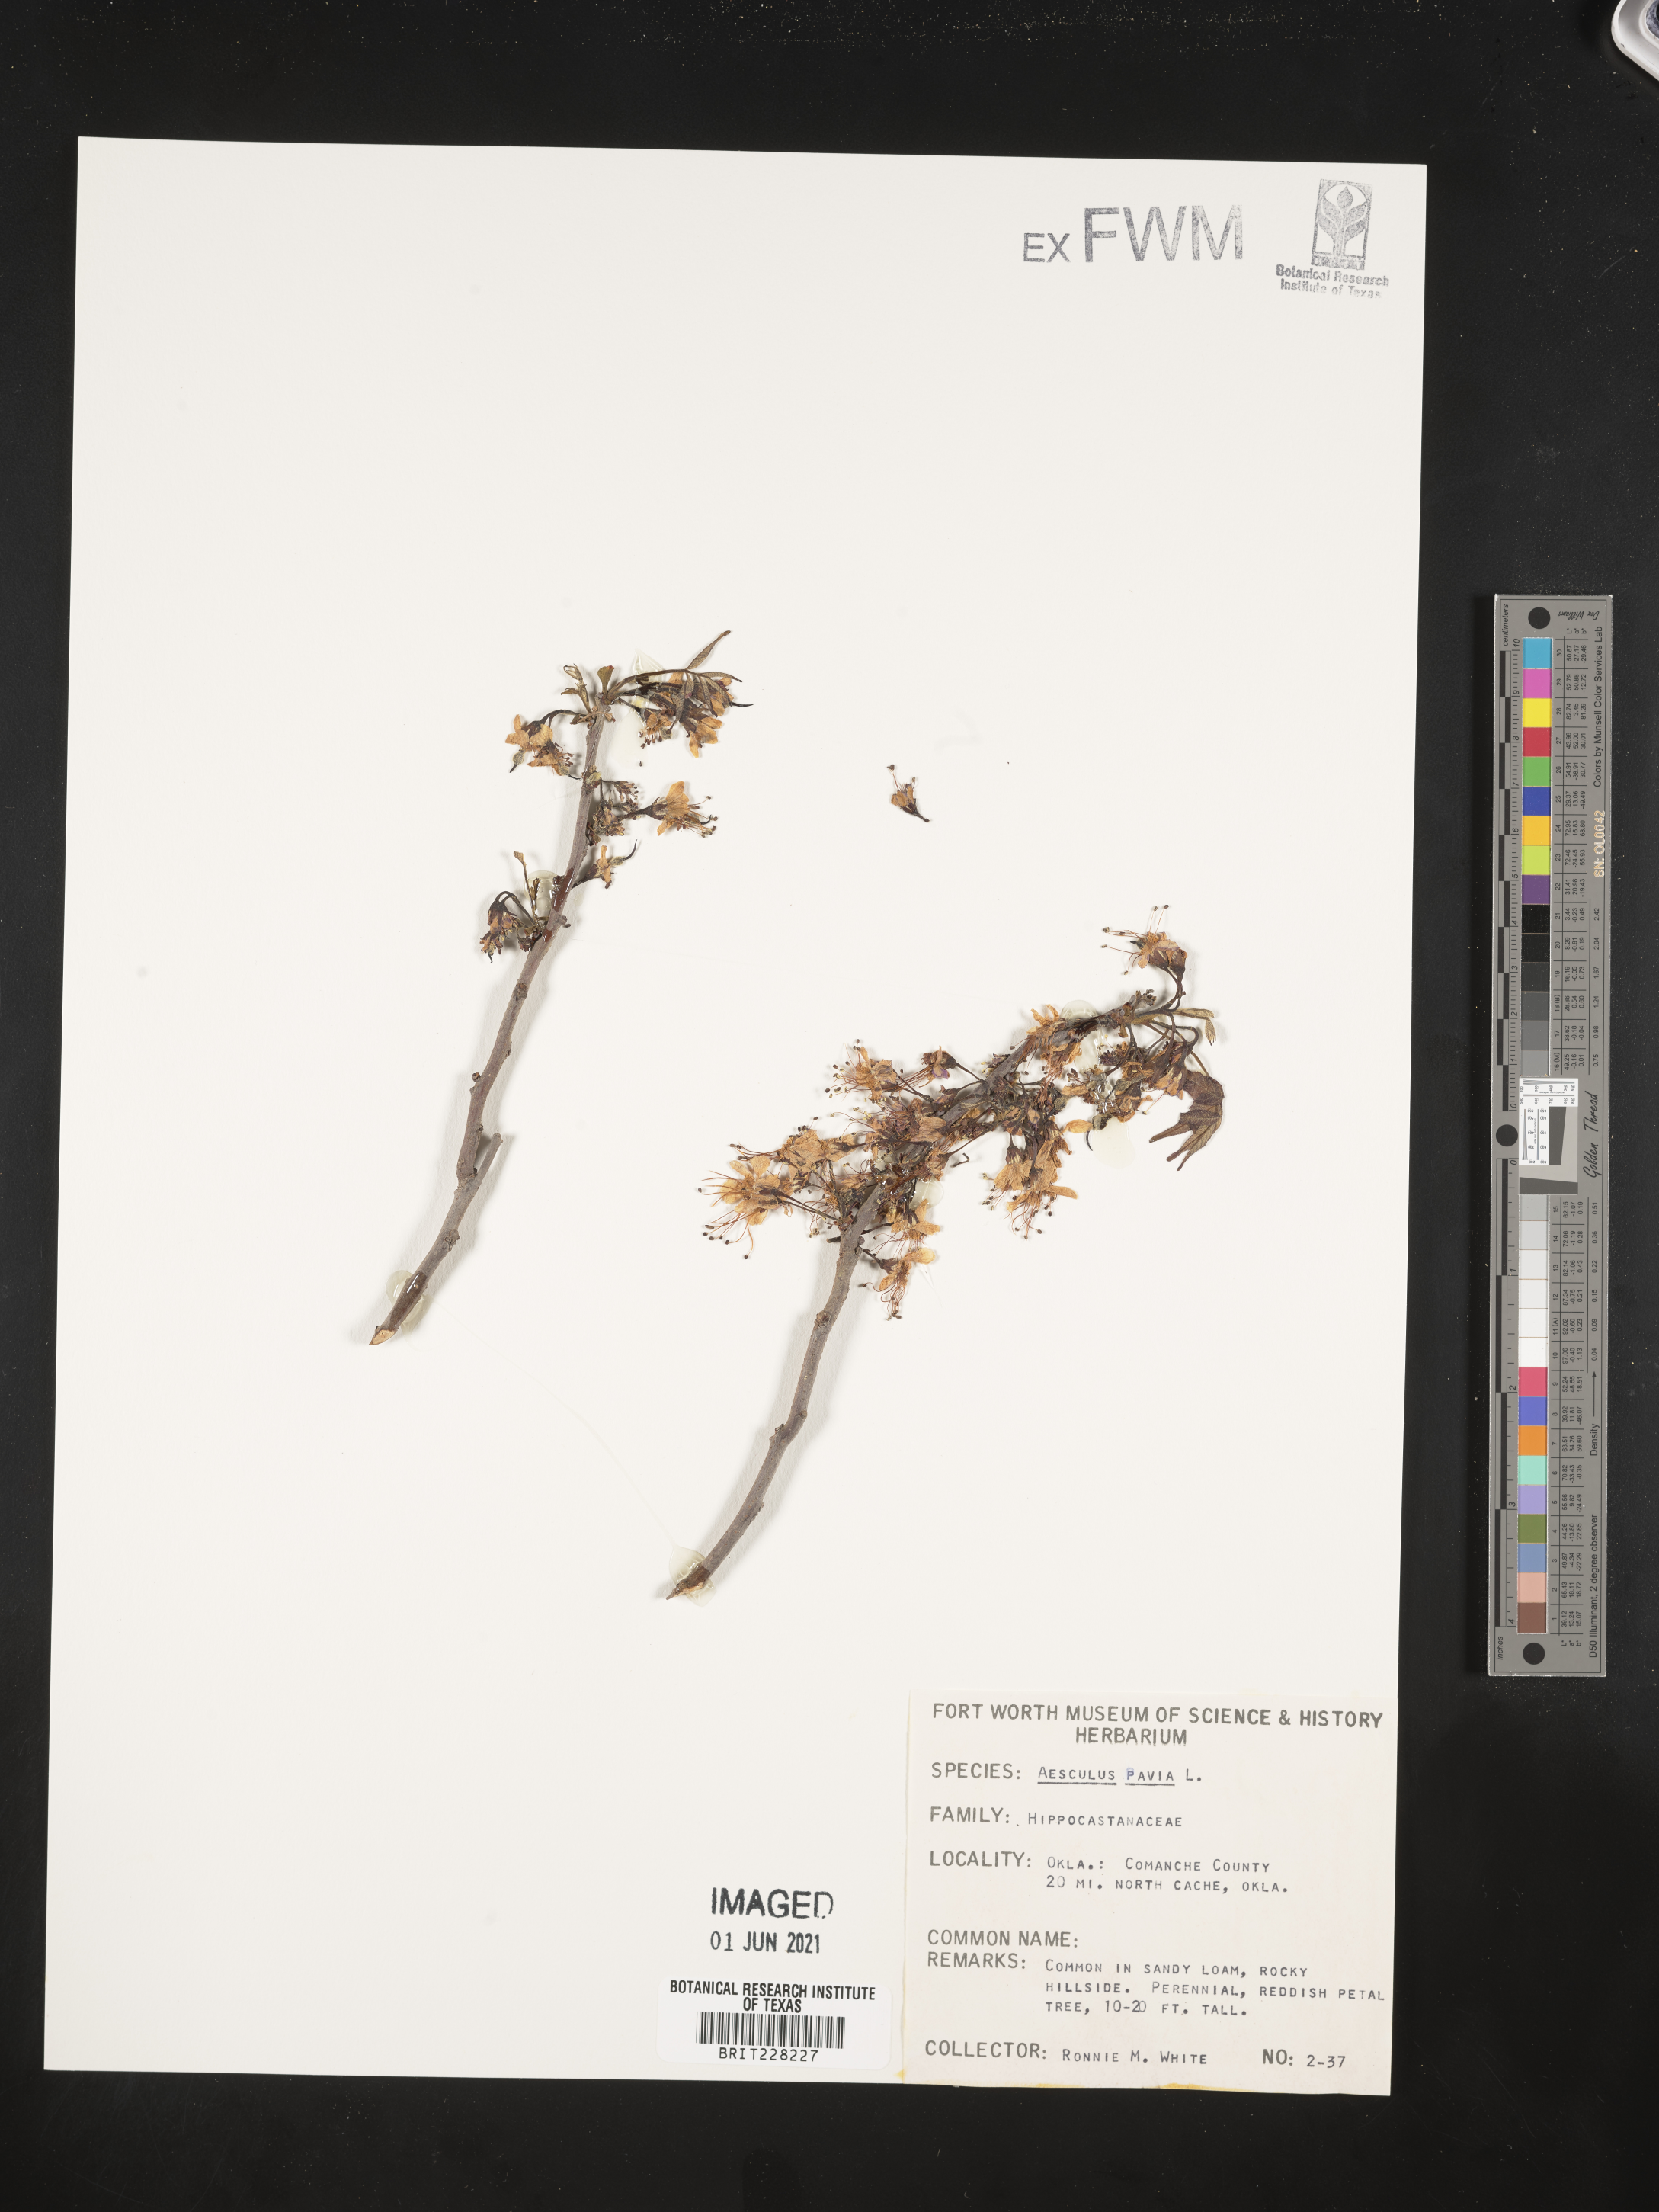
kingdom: Plantae
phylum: Tracheophyta
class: Magnoliopsida
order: Sapindales
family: Sapindaceae
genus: Aesculus
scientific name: Aesculus pavia
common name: Red buckeye
